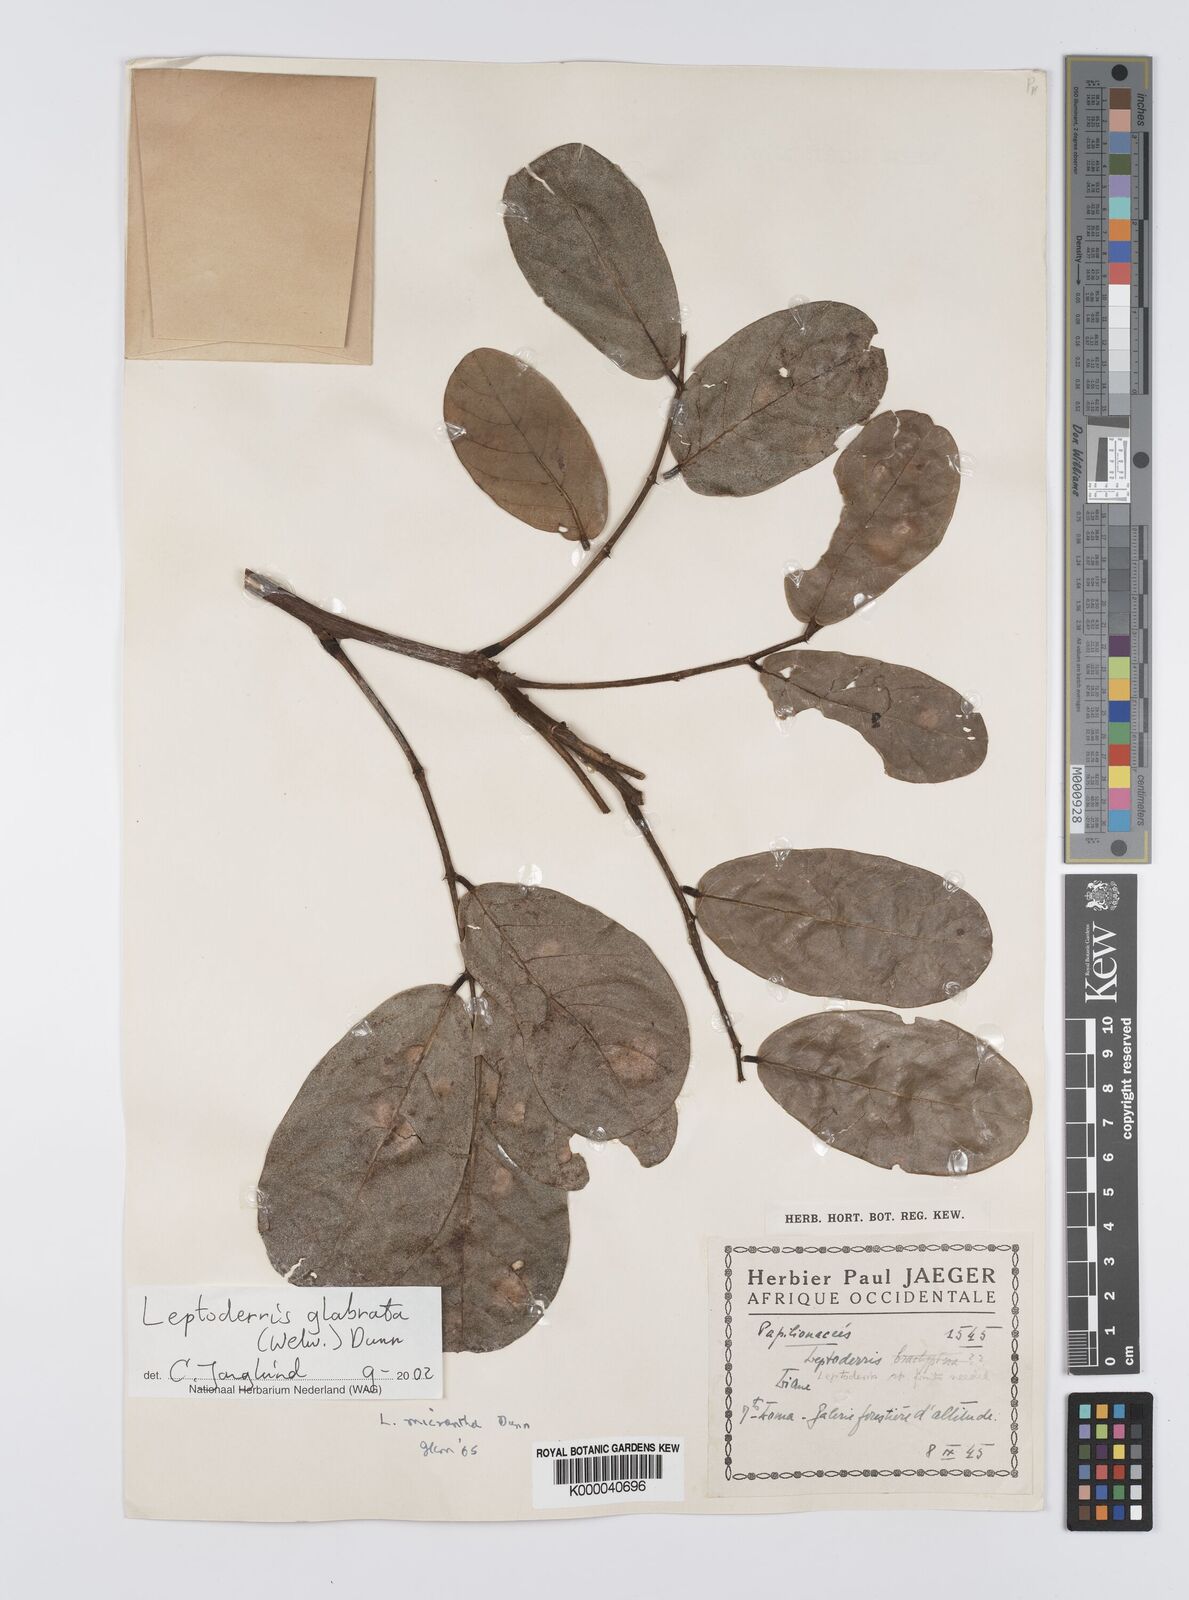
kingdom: Plantae
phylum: Tracheophyta
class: Magnoliopsida
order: Fabales
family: Fabaceae
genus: Leptoderris
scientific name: Leptoderris glabrata
